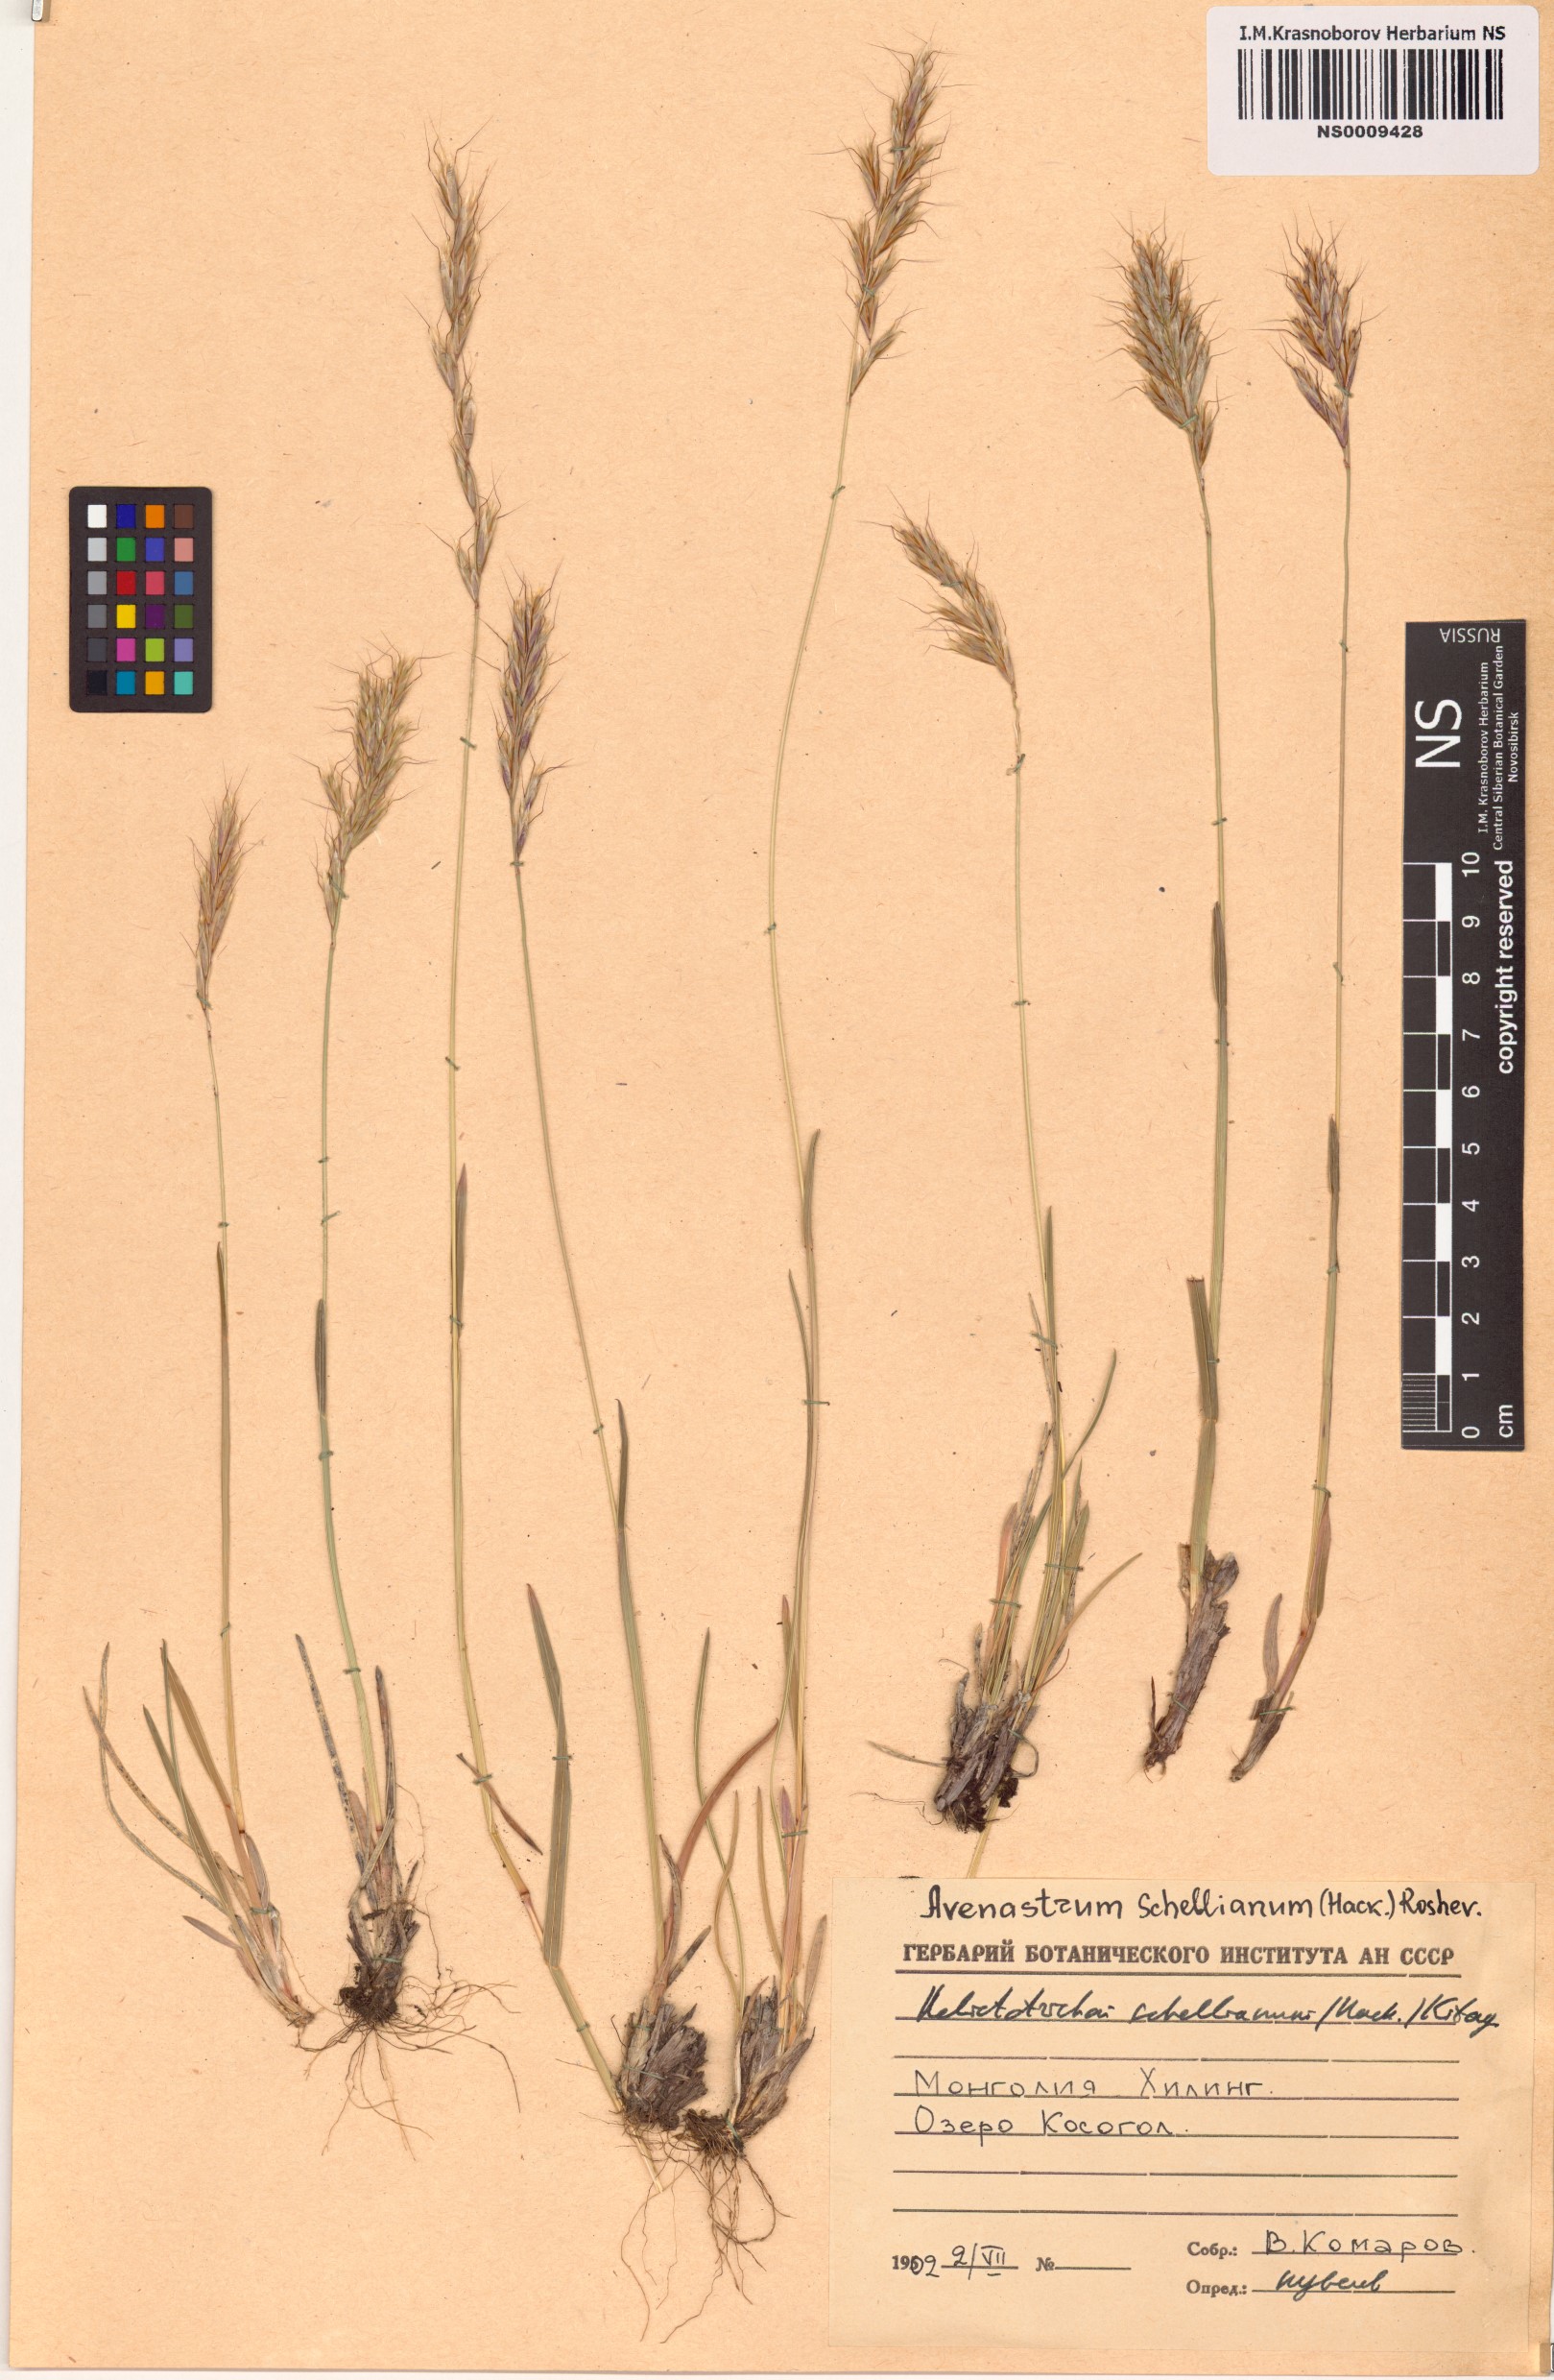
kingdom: Plantae
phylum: Tracheophyta
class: Liliopsida
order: Poales
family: Poaceae
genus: Helictochloa
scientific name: Helictochloa hookeri
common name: Hooker's alpine oatgrass
